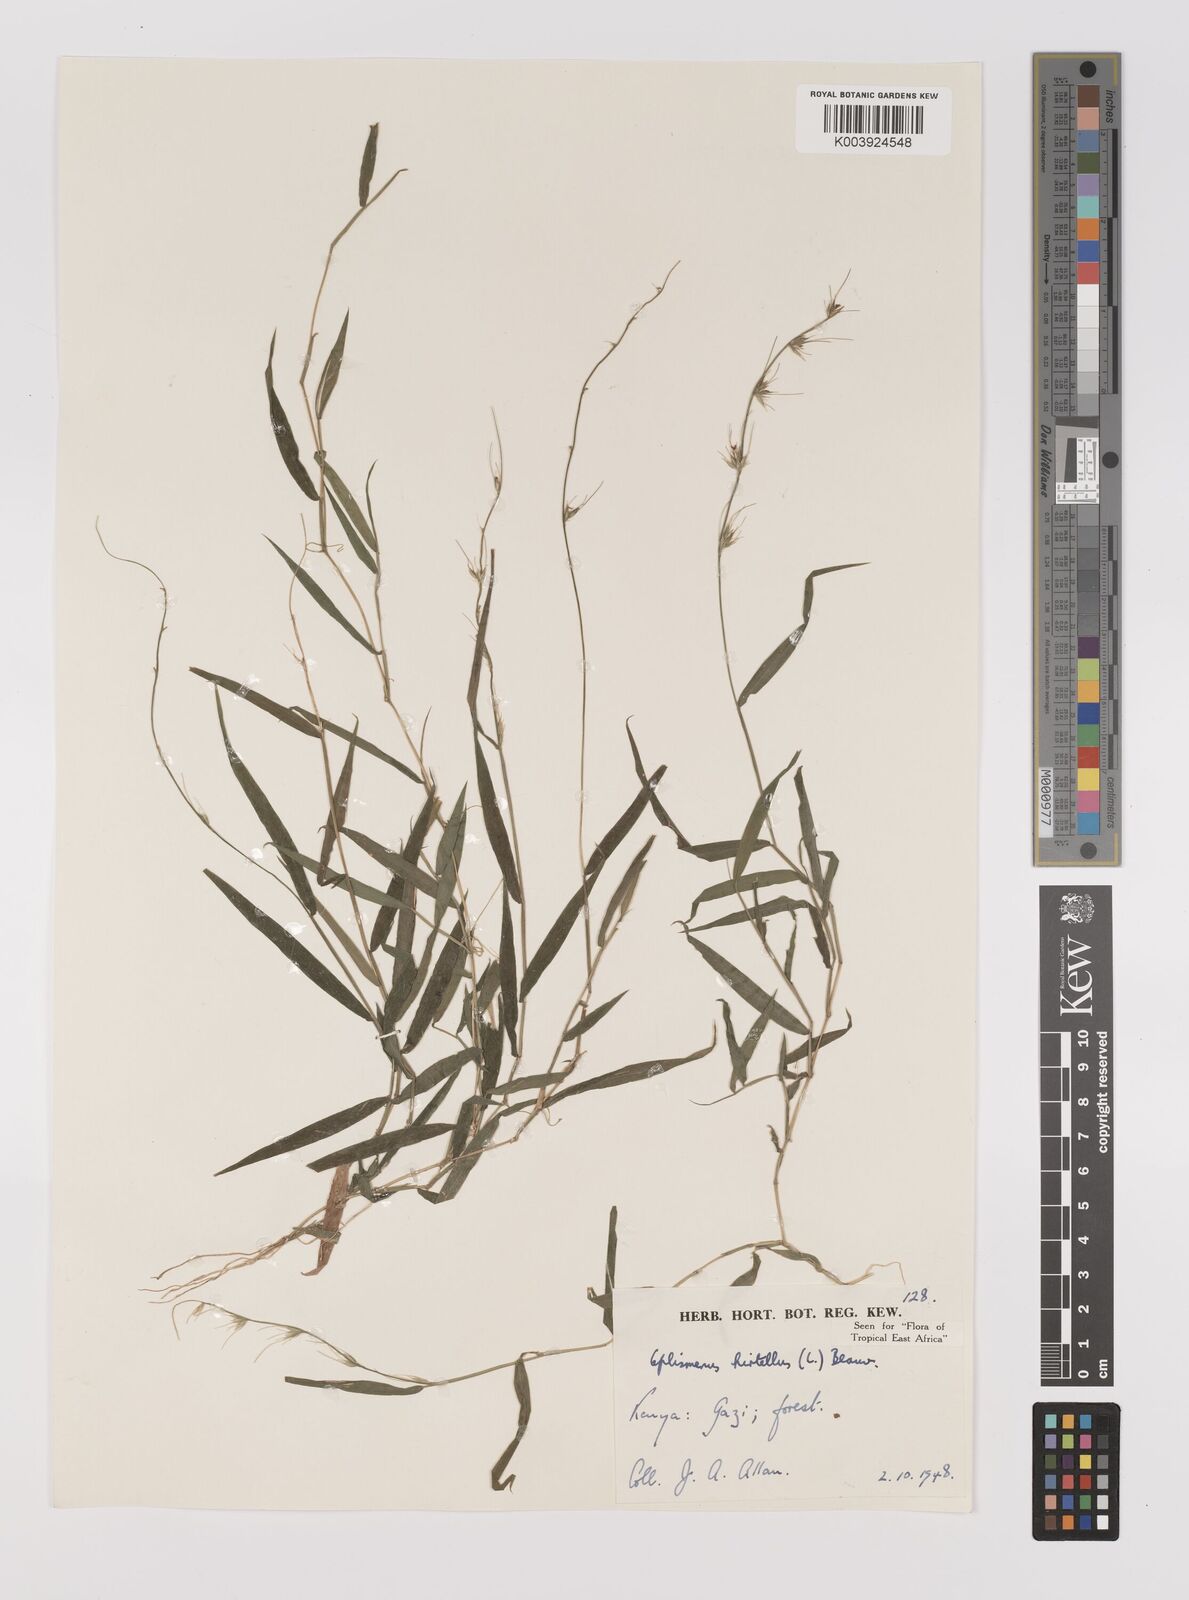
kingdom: Plantae
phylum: Tracheophyta
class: Liliopsida
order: Poales
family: Poaceae
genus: Oplismenus
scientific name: Oplismenus hirtellus
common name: Basketgrass
